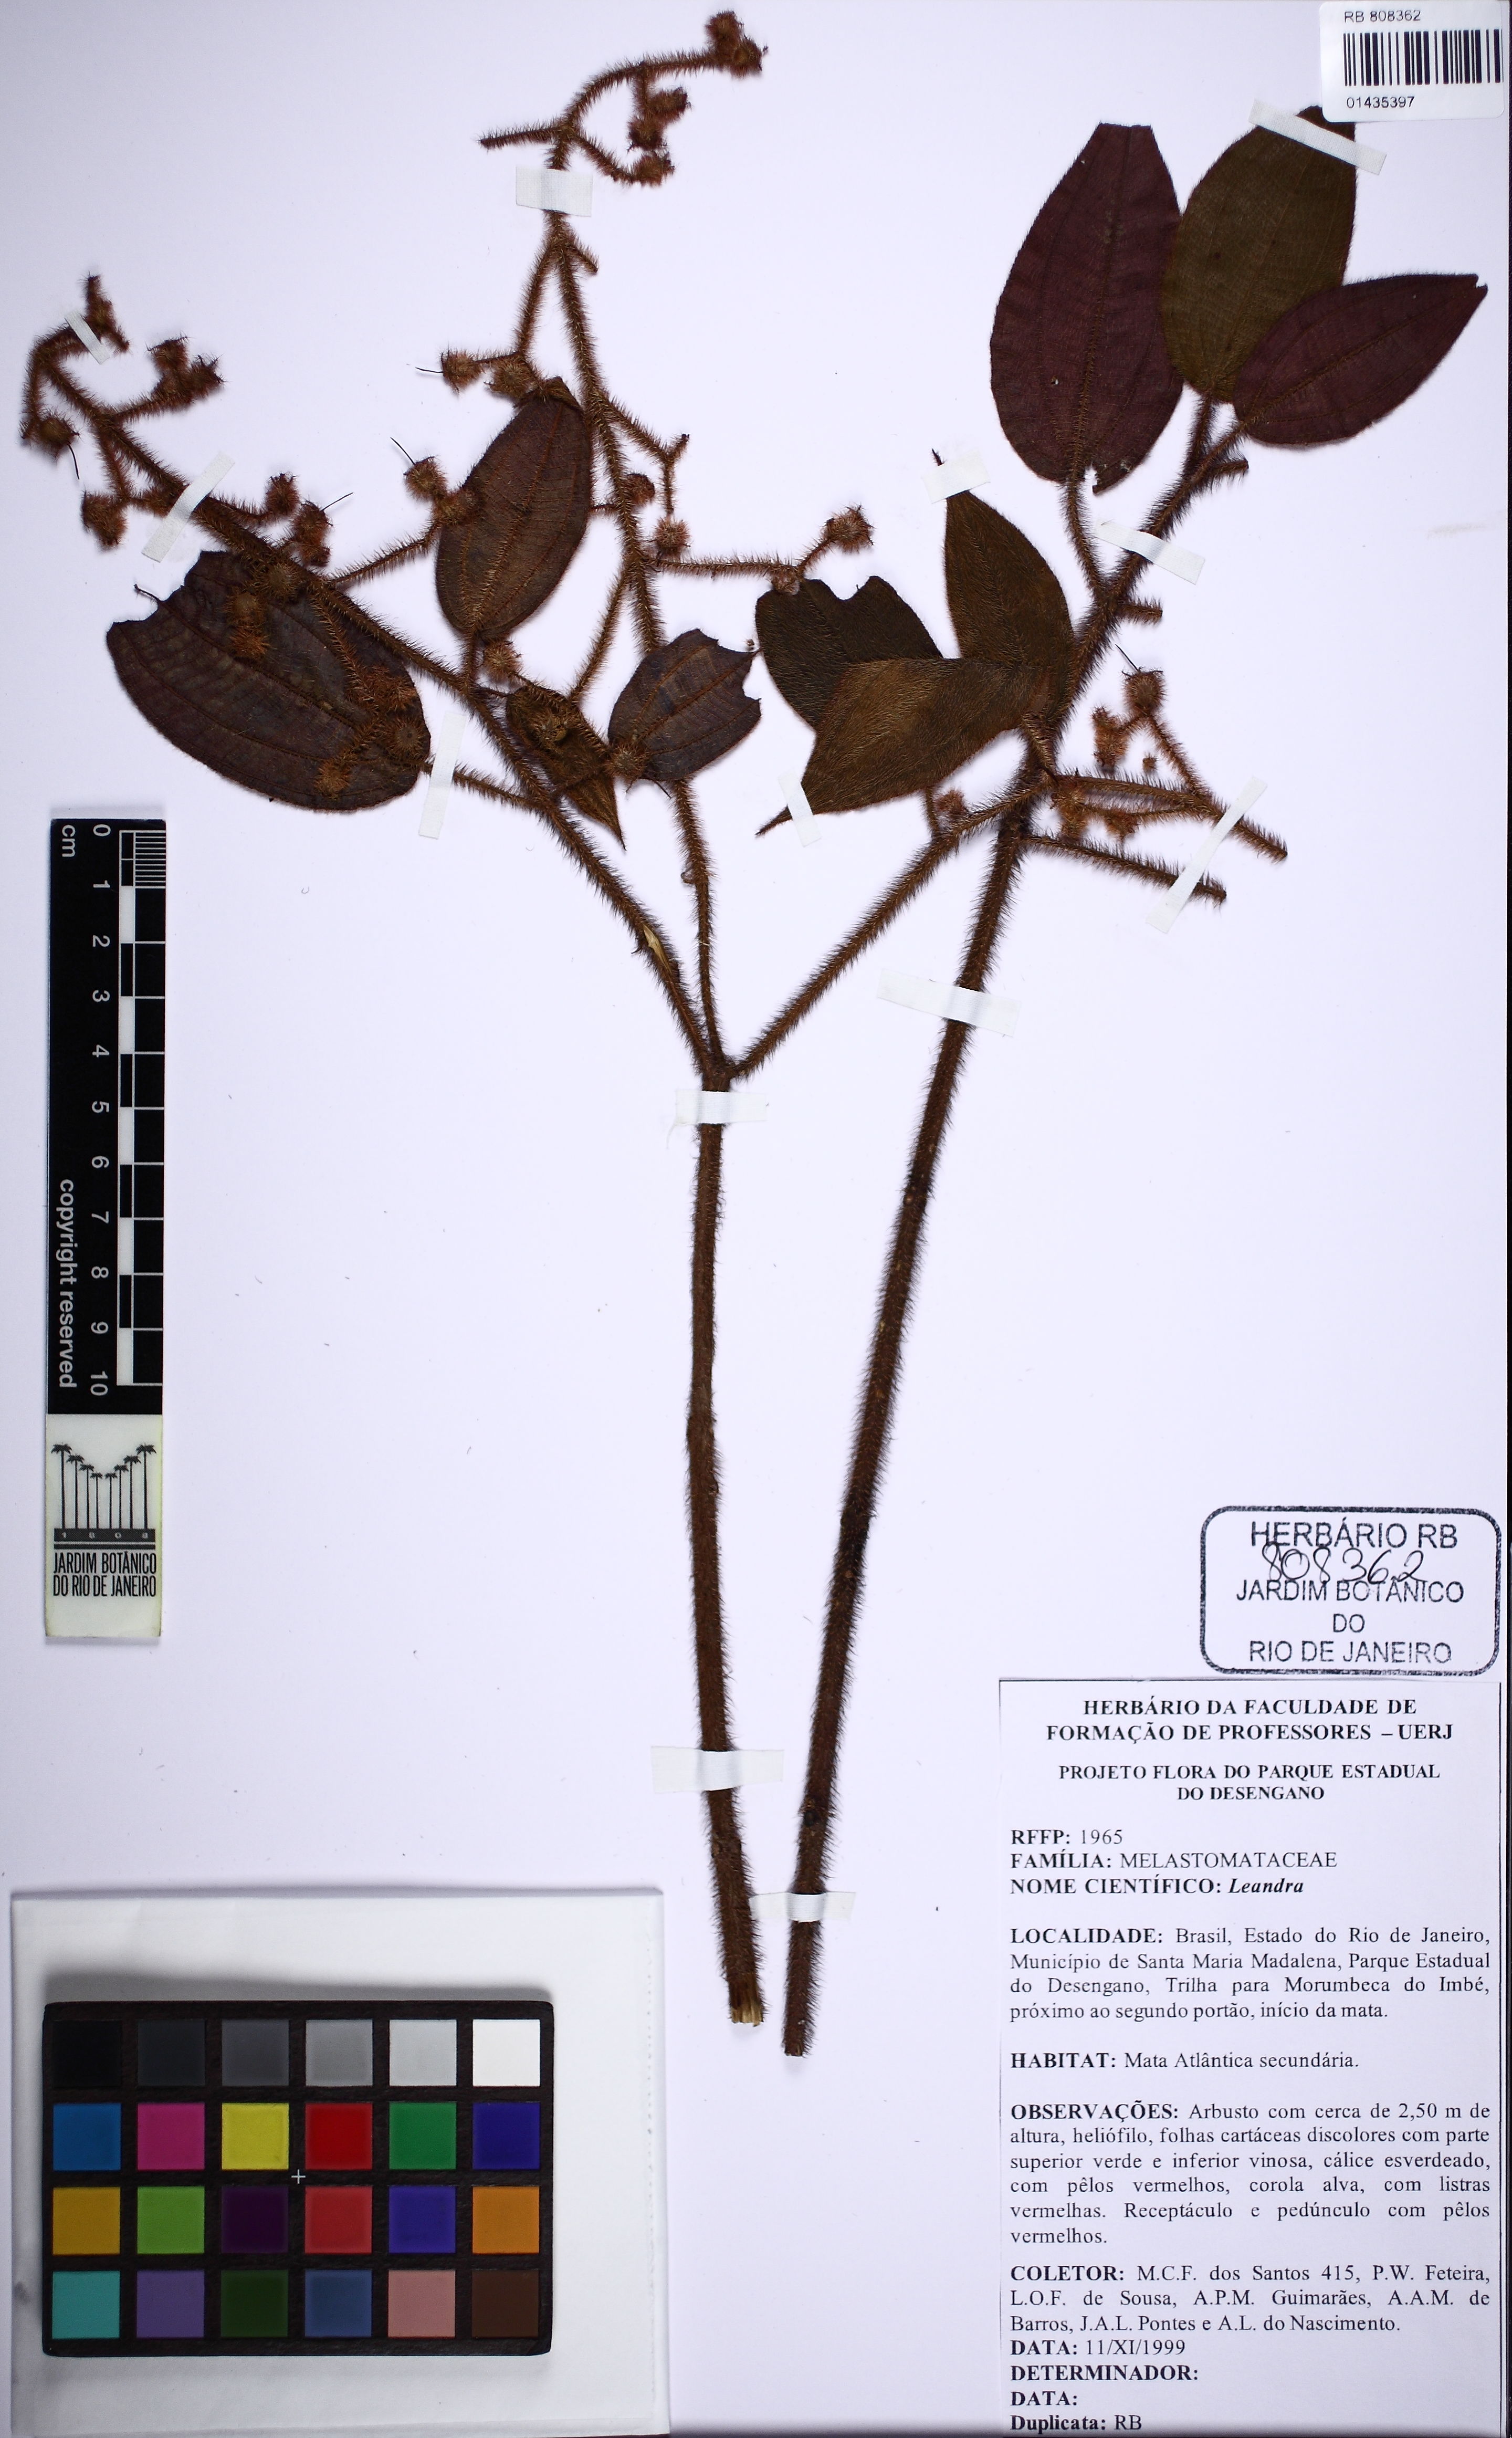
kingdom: Plantae
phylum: Tracheophyta
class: Magnoliopsida
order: Myrtales
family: Melastomataceae
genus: Miconia
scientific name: Miconia
